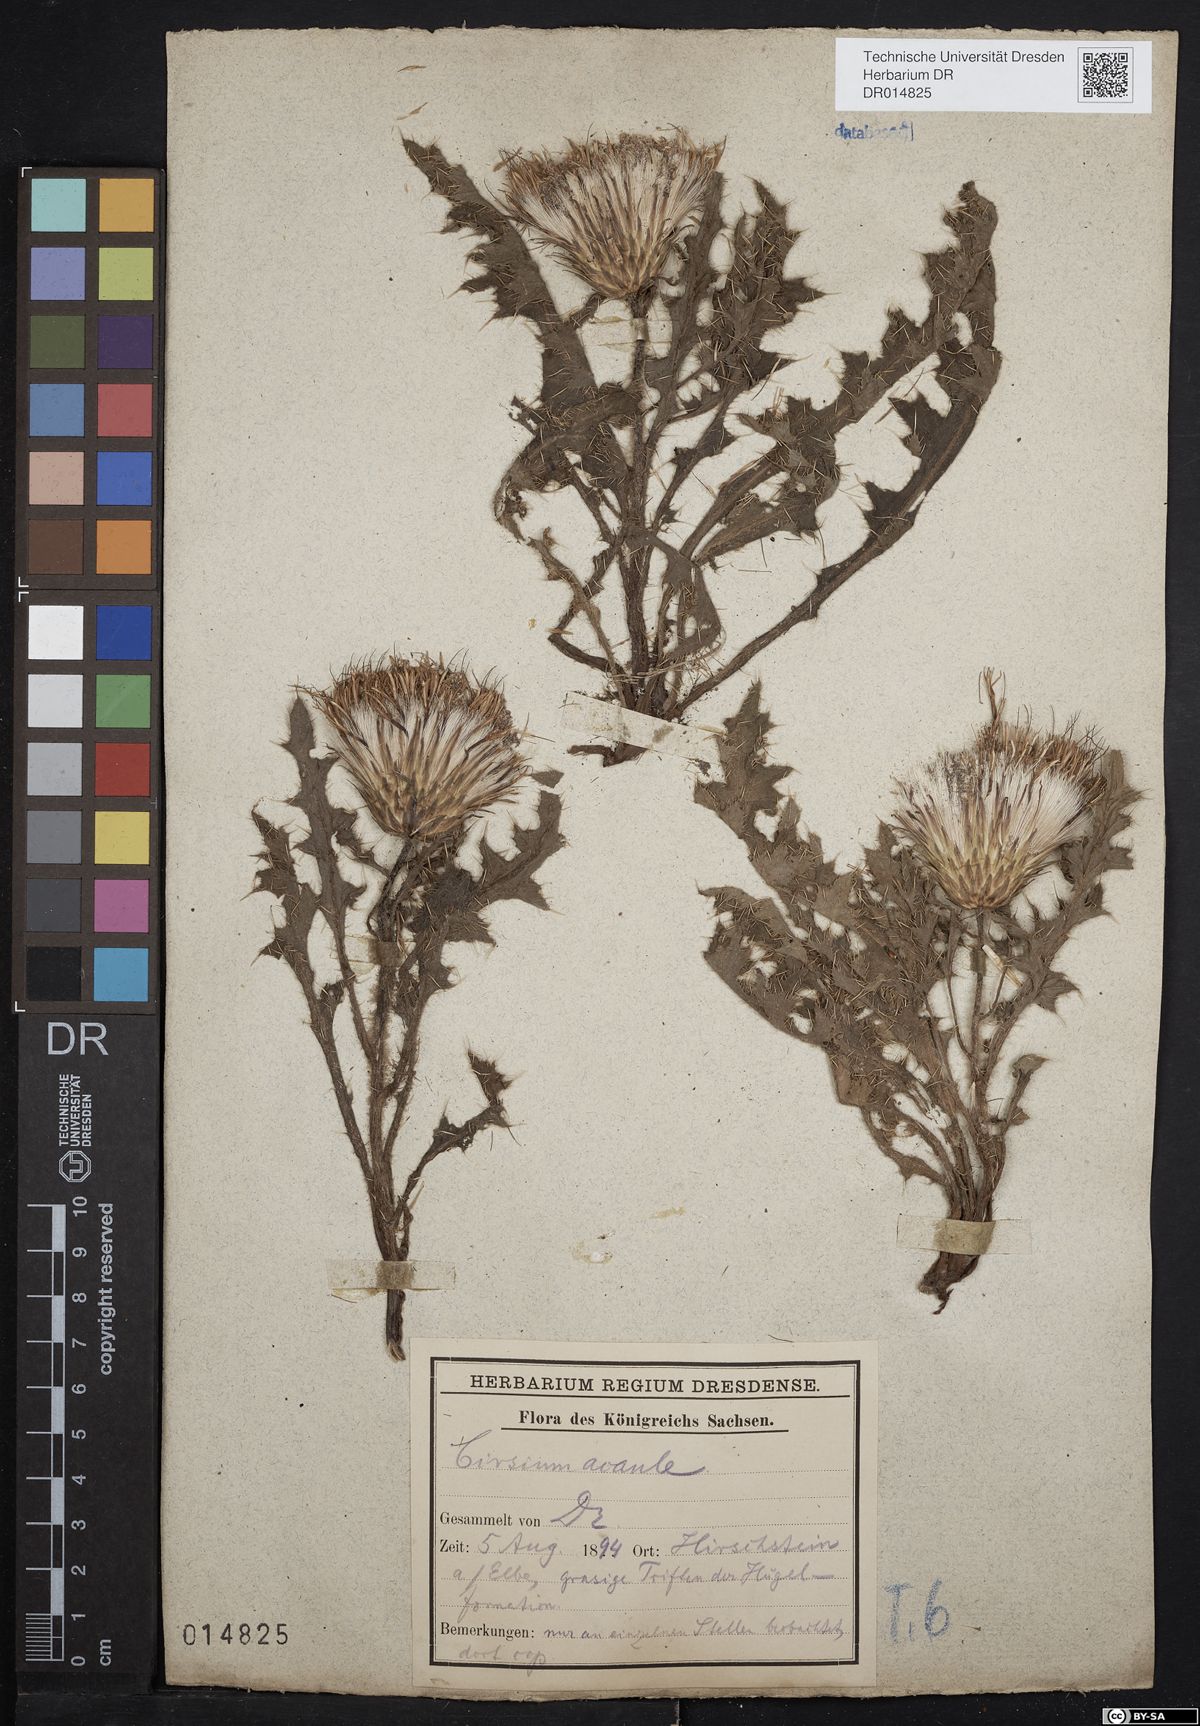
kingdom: Plantae
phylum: Tracheophyta
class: Magnoliopsida
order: Asterales
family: Asteraceae
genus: Cirsium
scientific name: Cirsium acaulon
